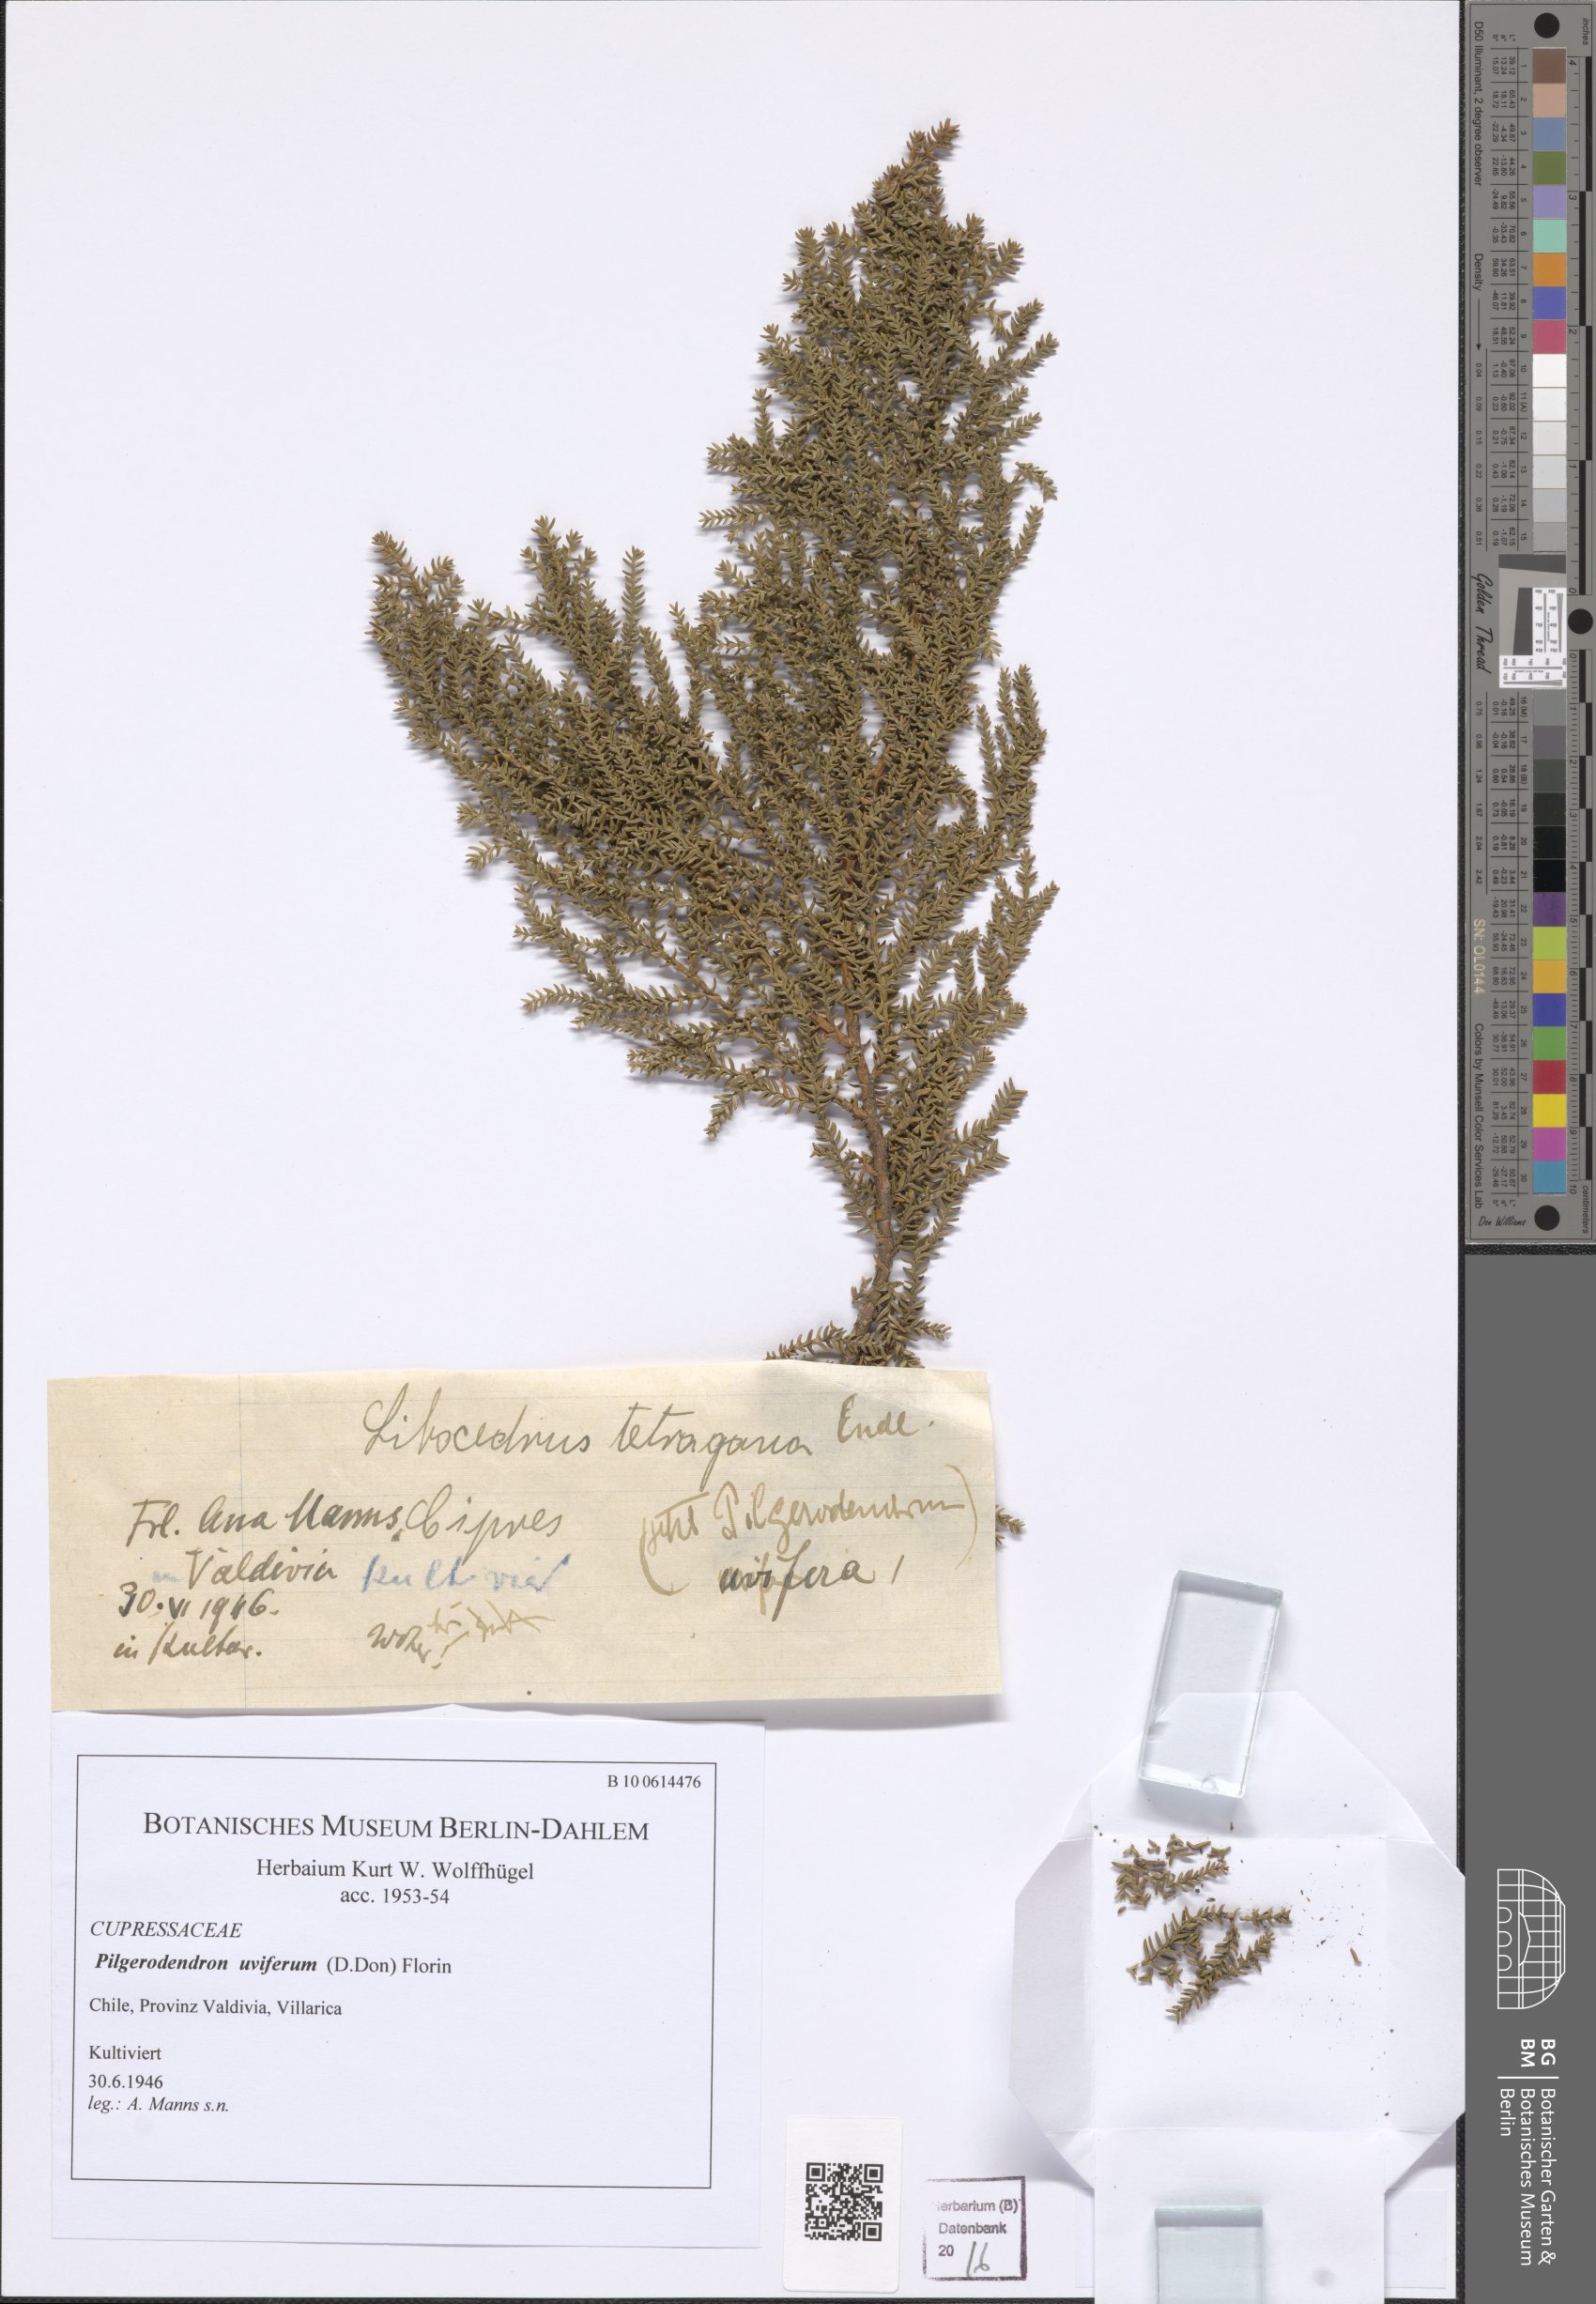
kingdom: Plantae
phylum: Tracheophyta
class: Pinopsida
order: Pinales
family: Cupressaceae
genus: Pilgerodendron
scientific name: Pilgerodendron uviferum
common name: Guaitecas cypress
